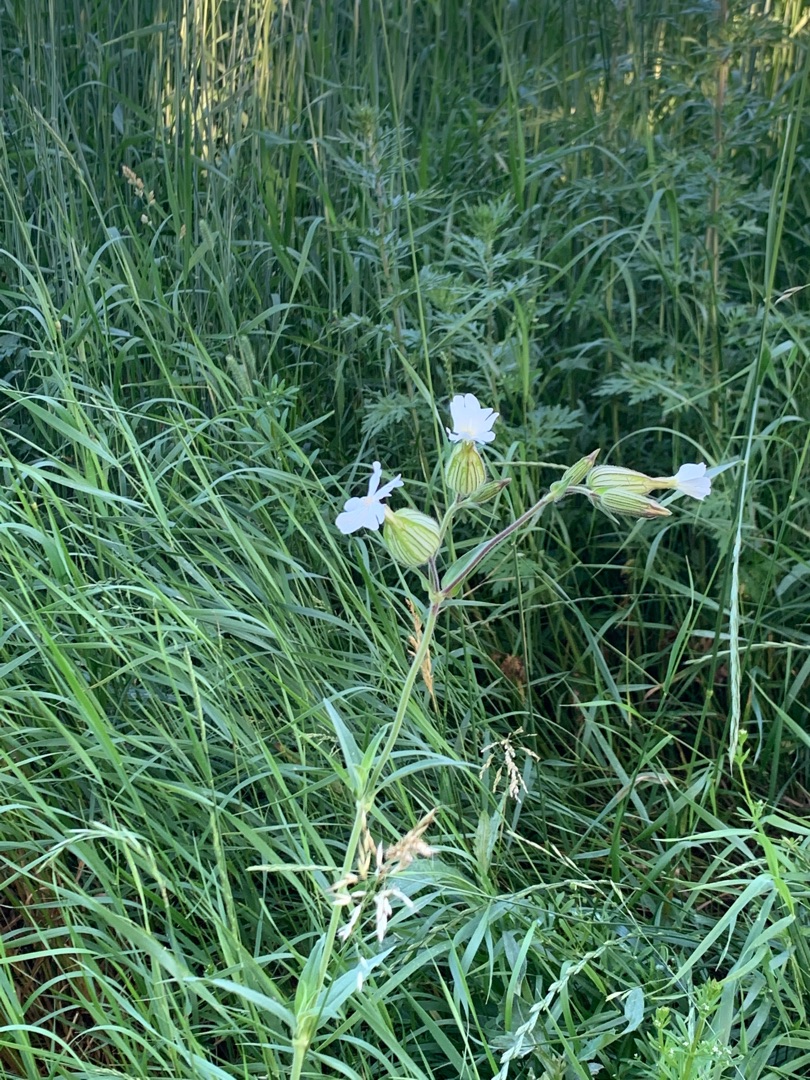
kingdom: Plantae
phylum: Tracheophyta
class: Magnoliopsida
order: Caryophyllales
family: Caryophyllaceae
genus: Silene
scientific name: Silene latifolia
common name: Aftenpragtstjerne
